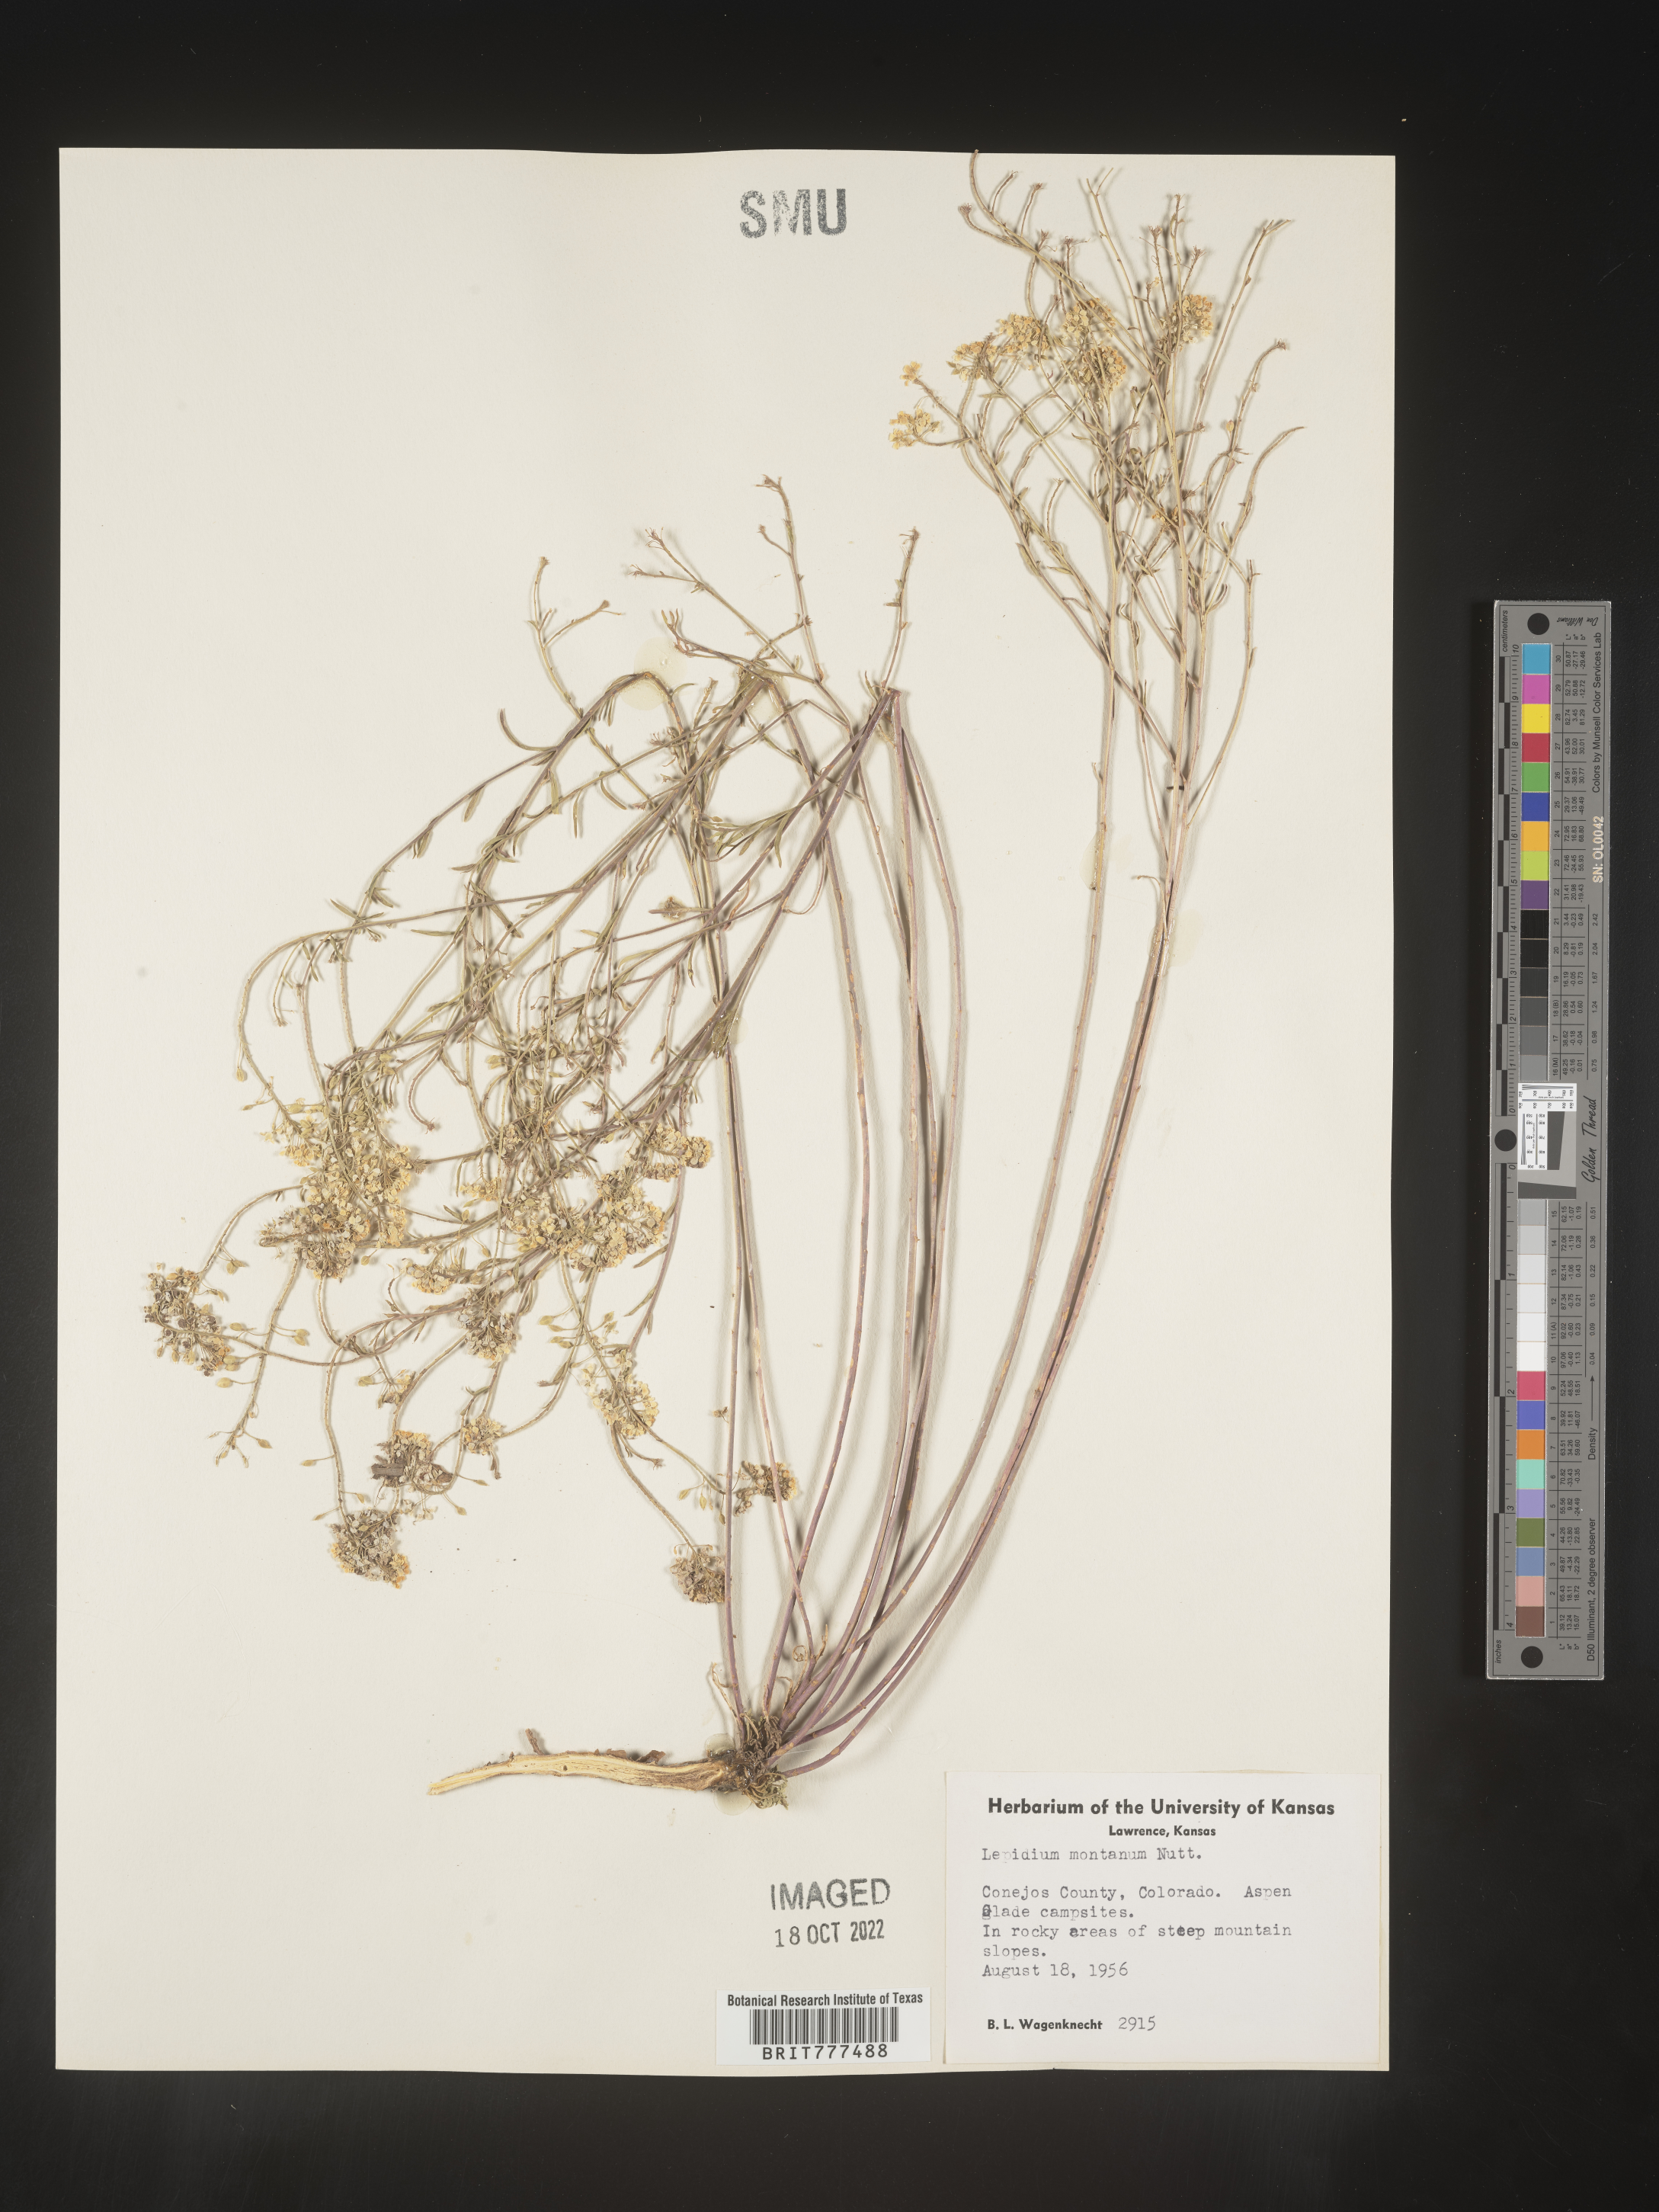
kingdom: Plantae
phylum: Tracheophyta
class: Magnoliopsida
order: Brassicales
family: Brassicaceae
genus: Lepidium
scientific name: Lepidium montanum
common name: Mountain pepperplant
